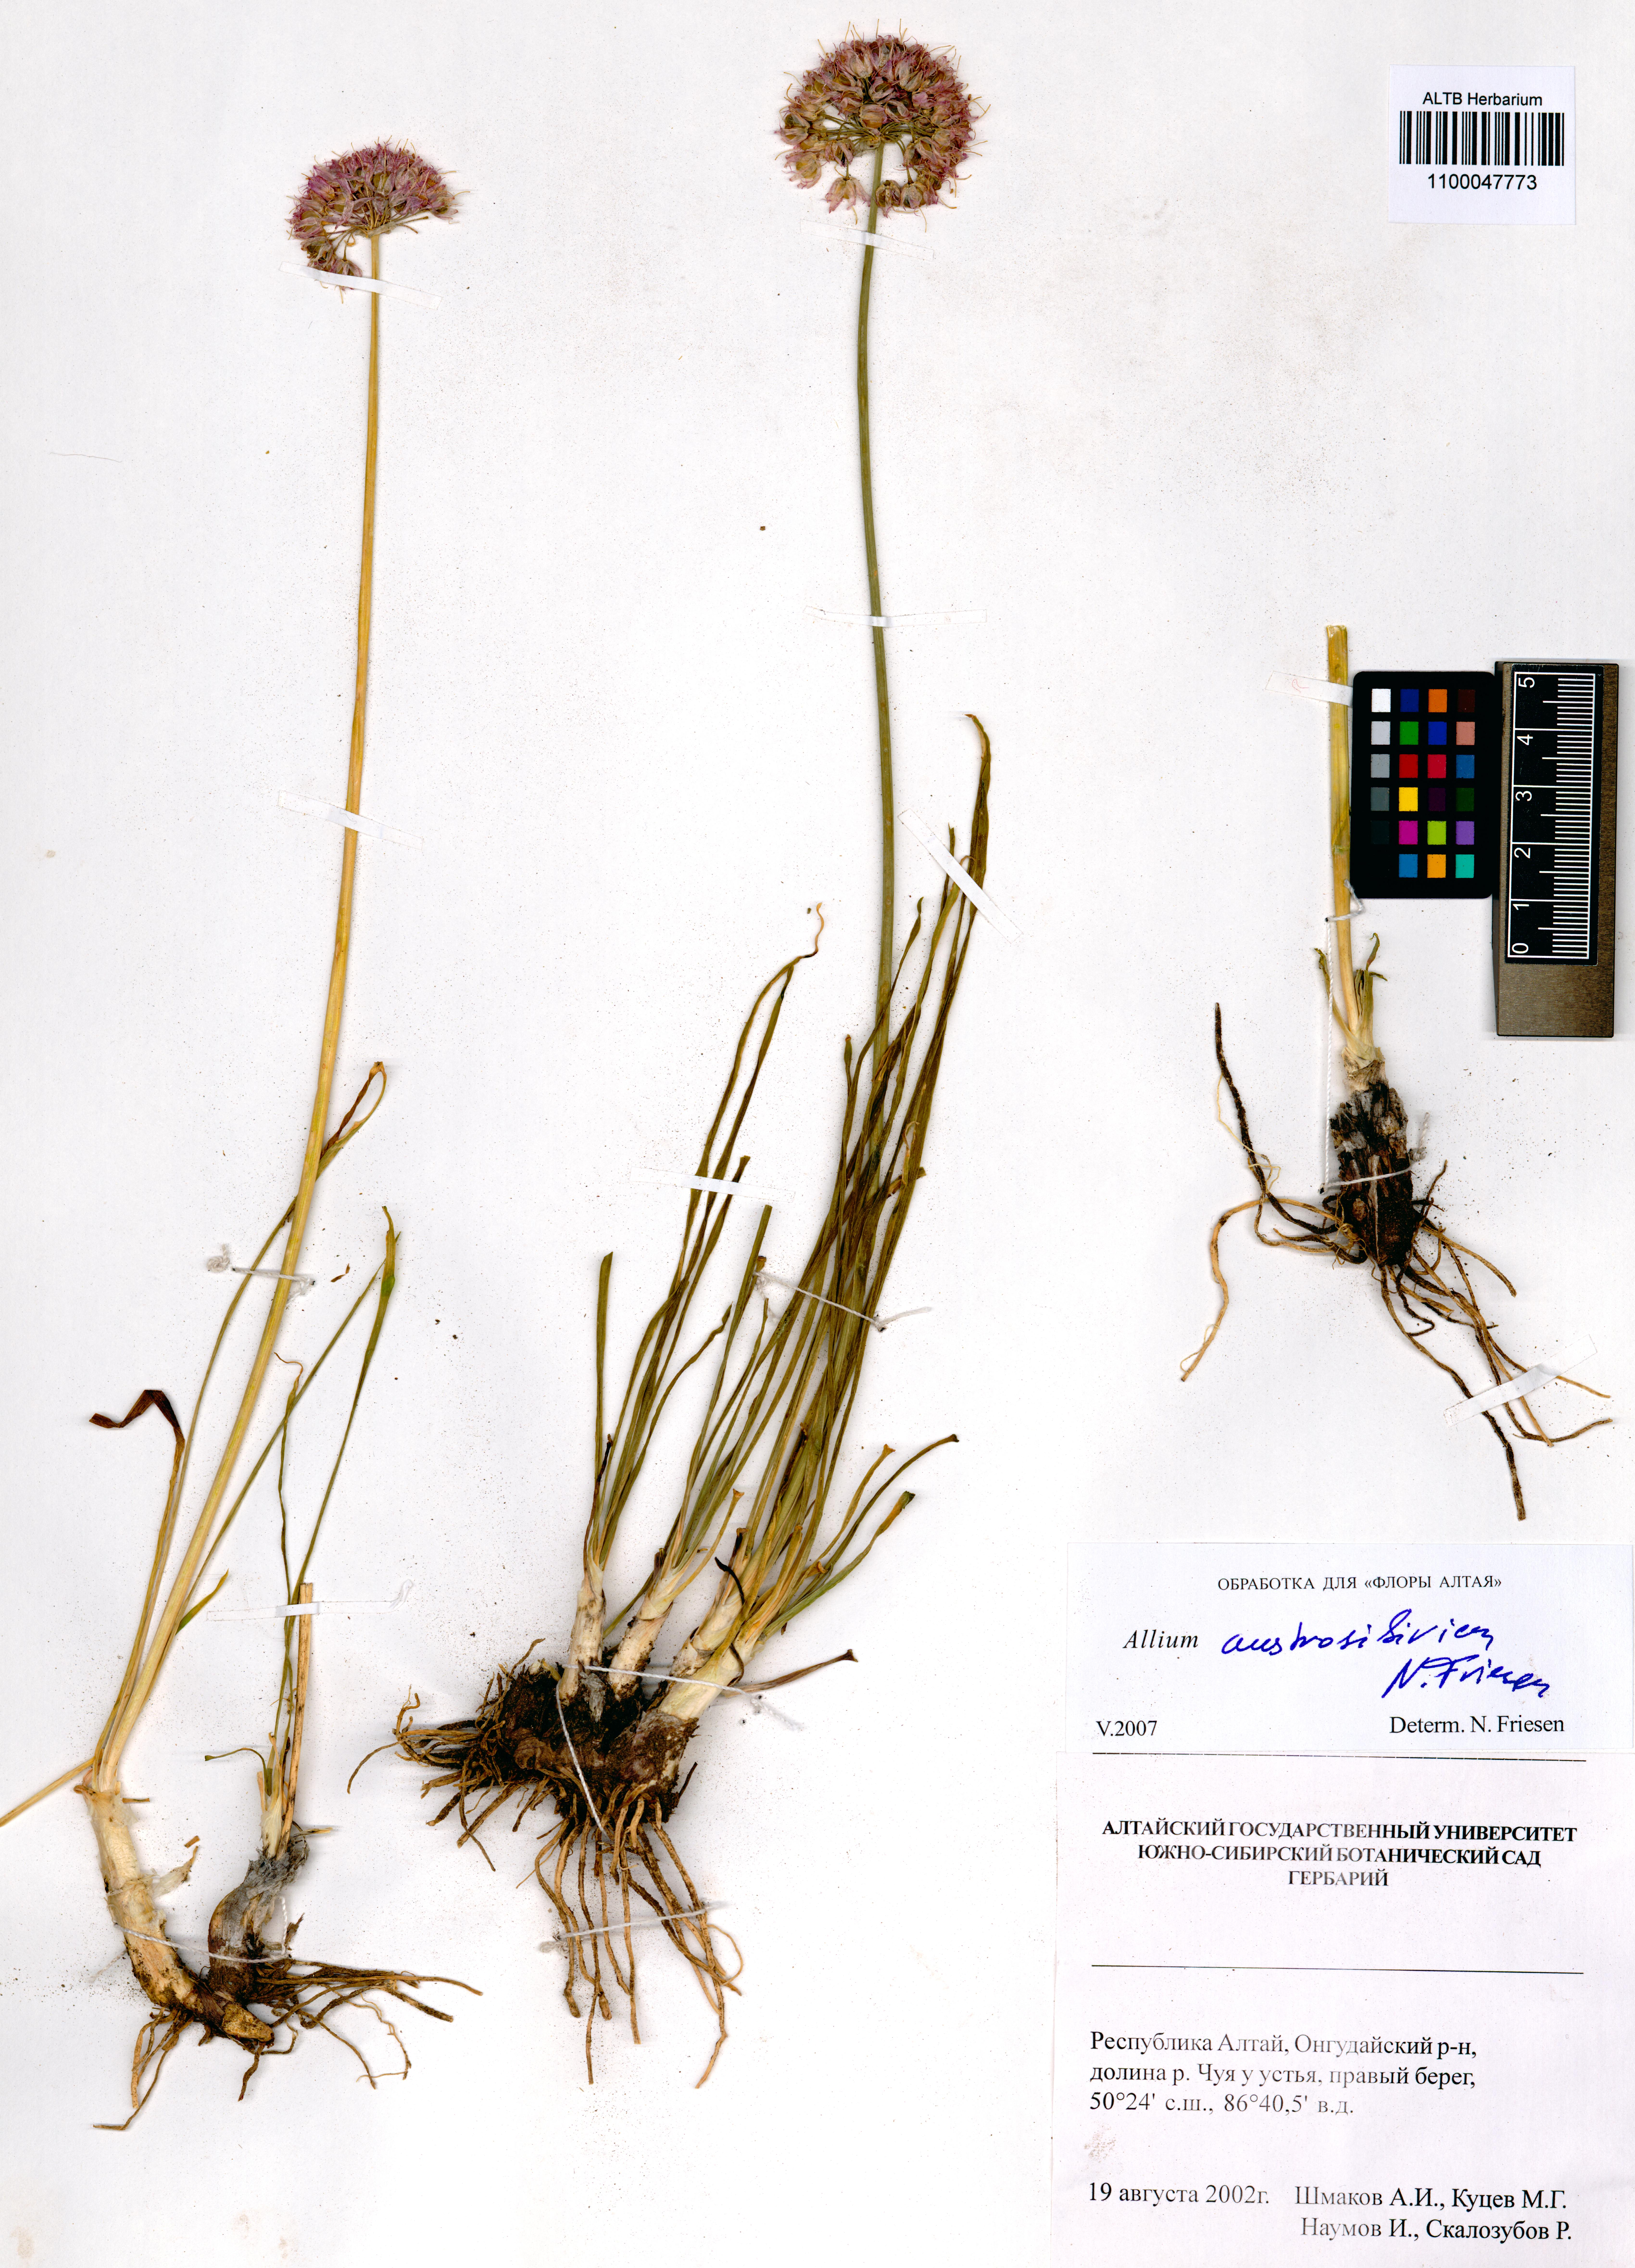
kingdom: Plantae
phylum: Tracheophyta
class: Liliopsida
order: Asparagales
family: Amaryllidaceae
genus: Allium
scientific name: Allium austrosibiricum
